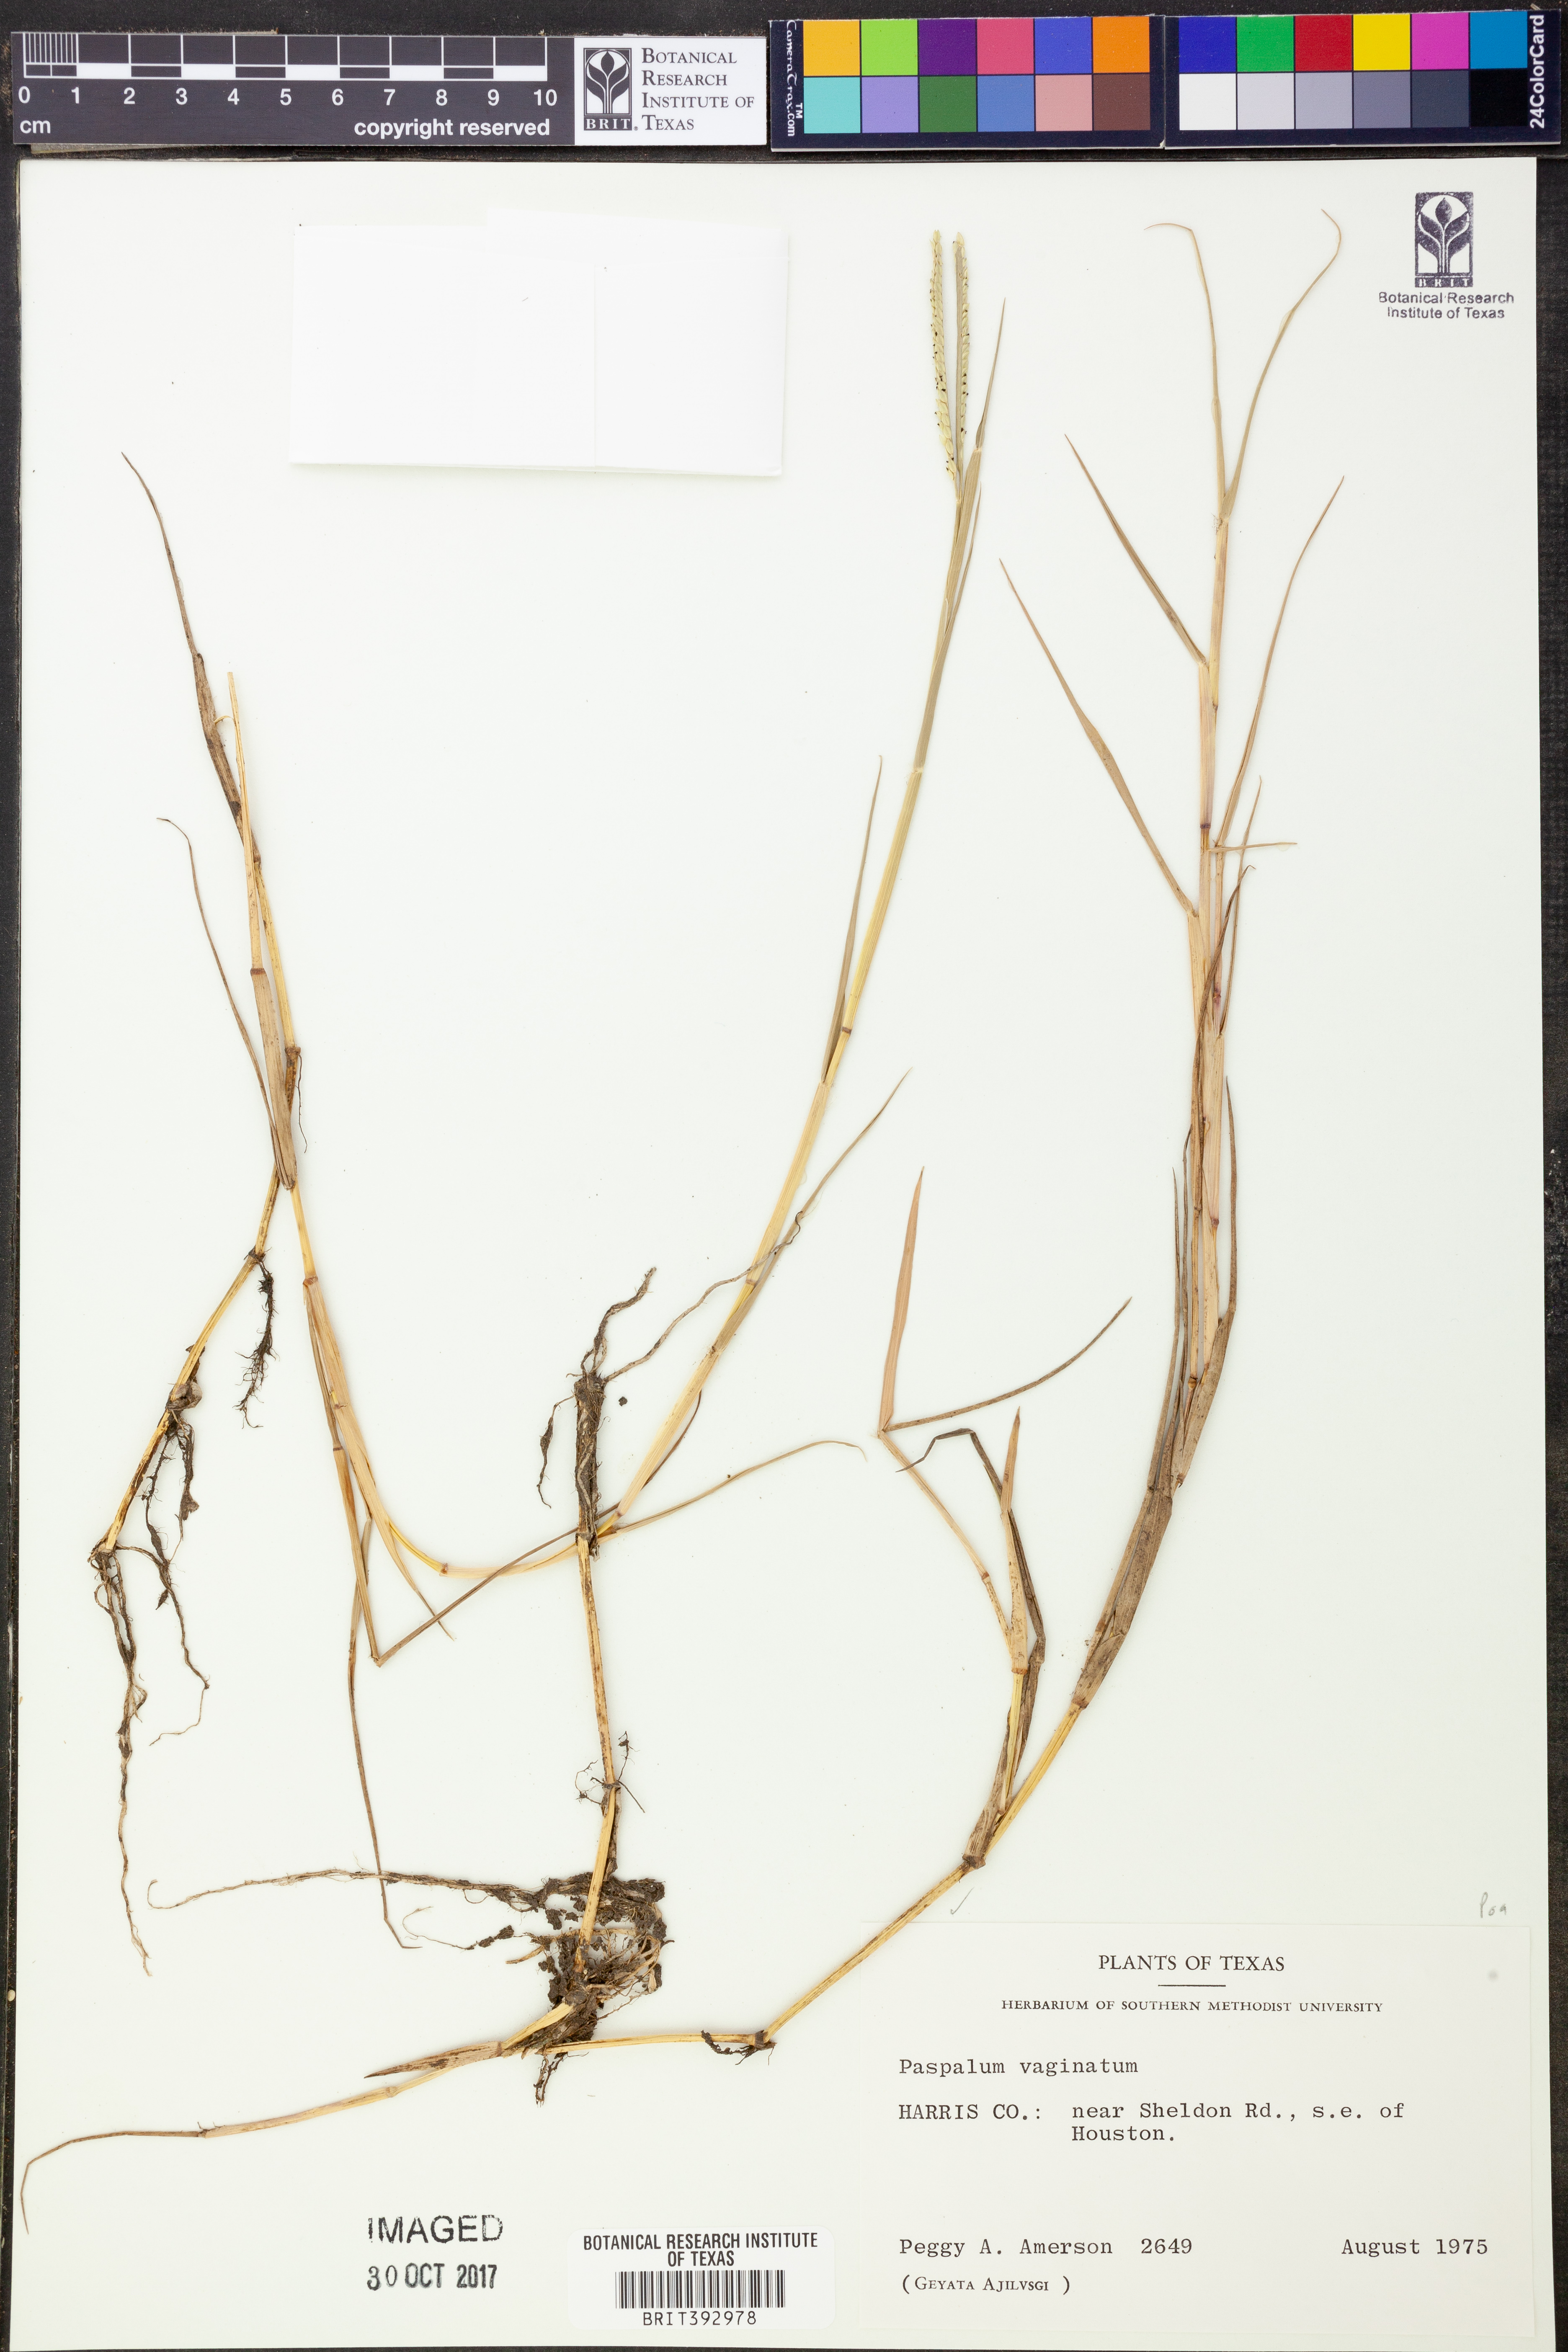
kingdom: Plantae
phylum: Tracheophyta
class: Liliopsida
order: Poales
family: Poaceae
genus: Paspalum
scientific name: Paspalum vaginatum
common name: Seashore paspalum
